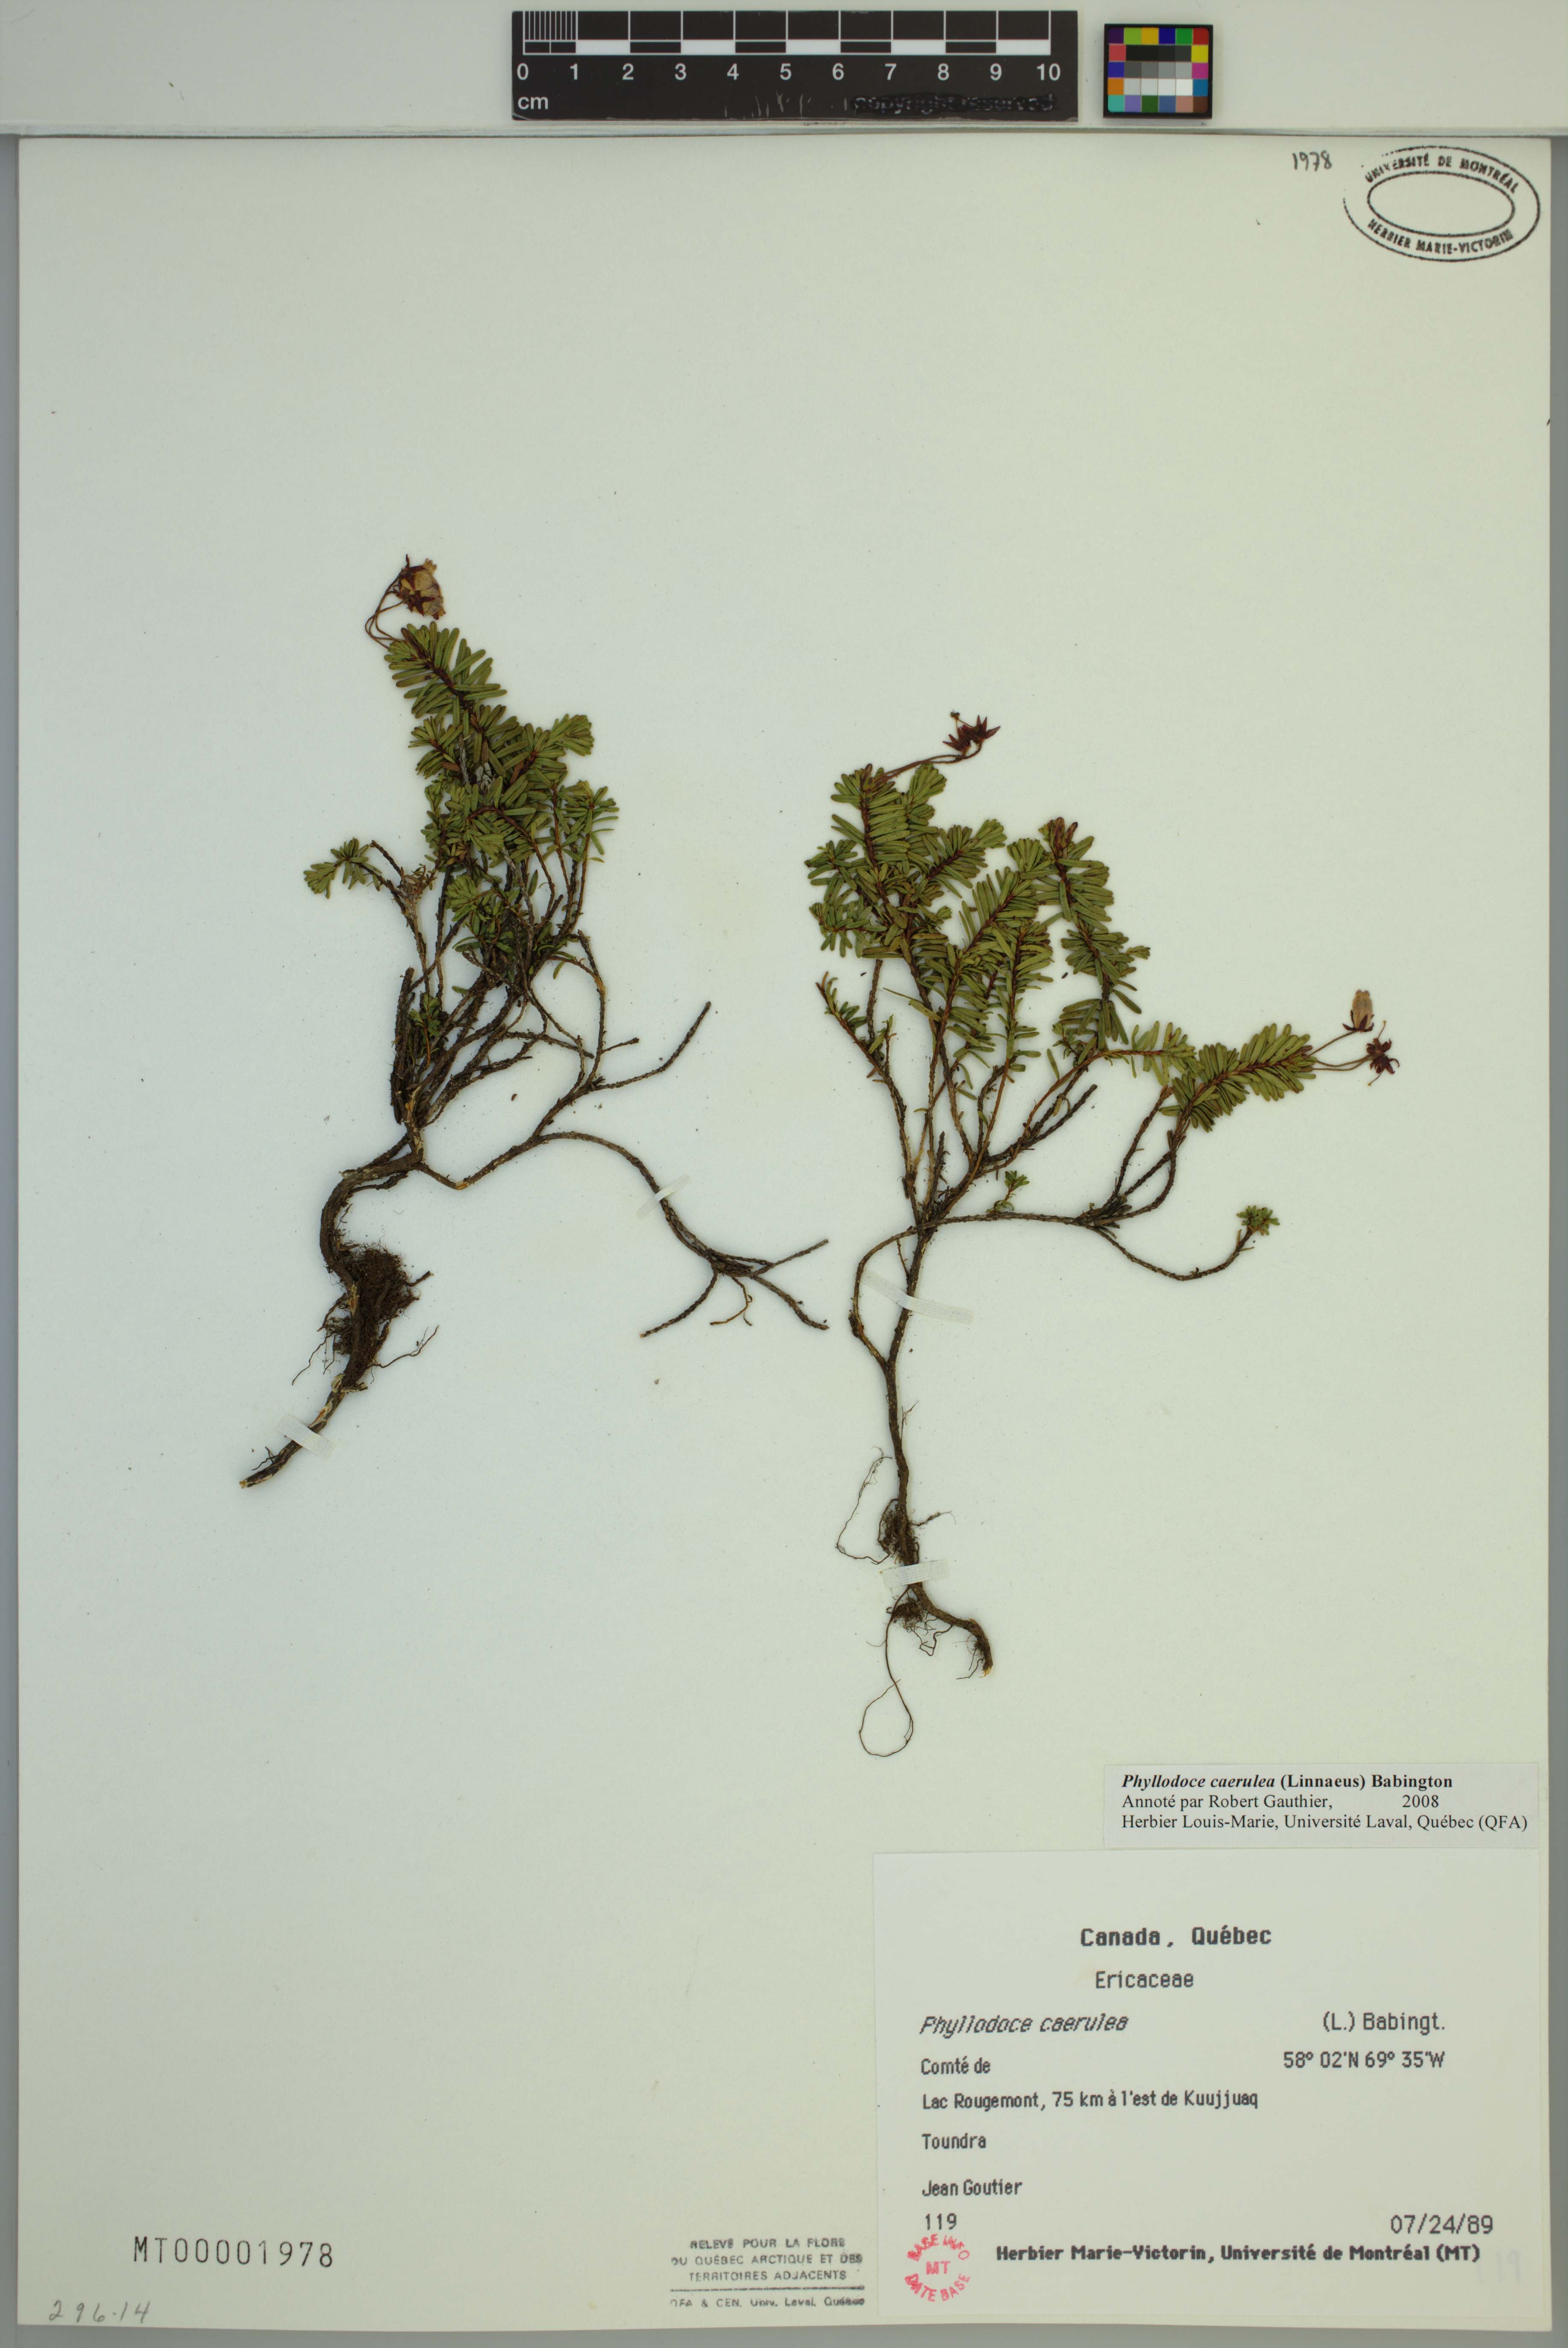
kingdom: Plantae
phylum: Tracheophyta
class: Magnoliopsida
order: Ericales
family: Ericaceae
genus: Phyllodoce
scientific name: Phyllodoce caerulea
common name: Blue heath
